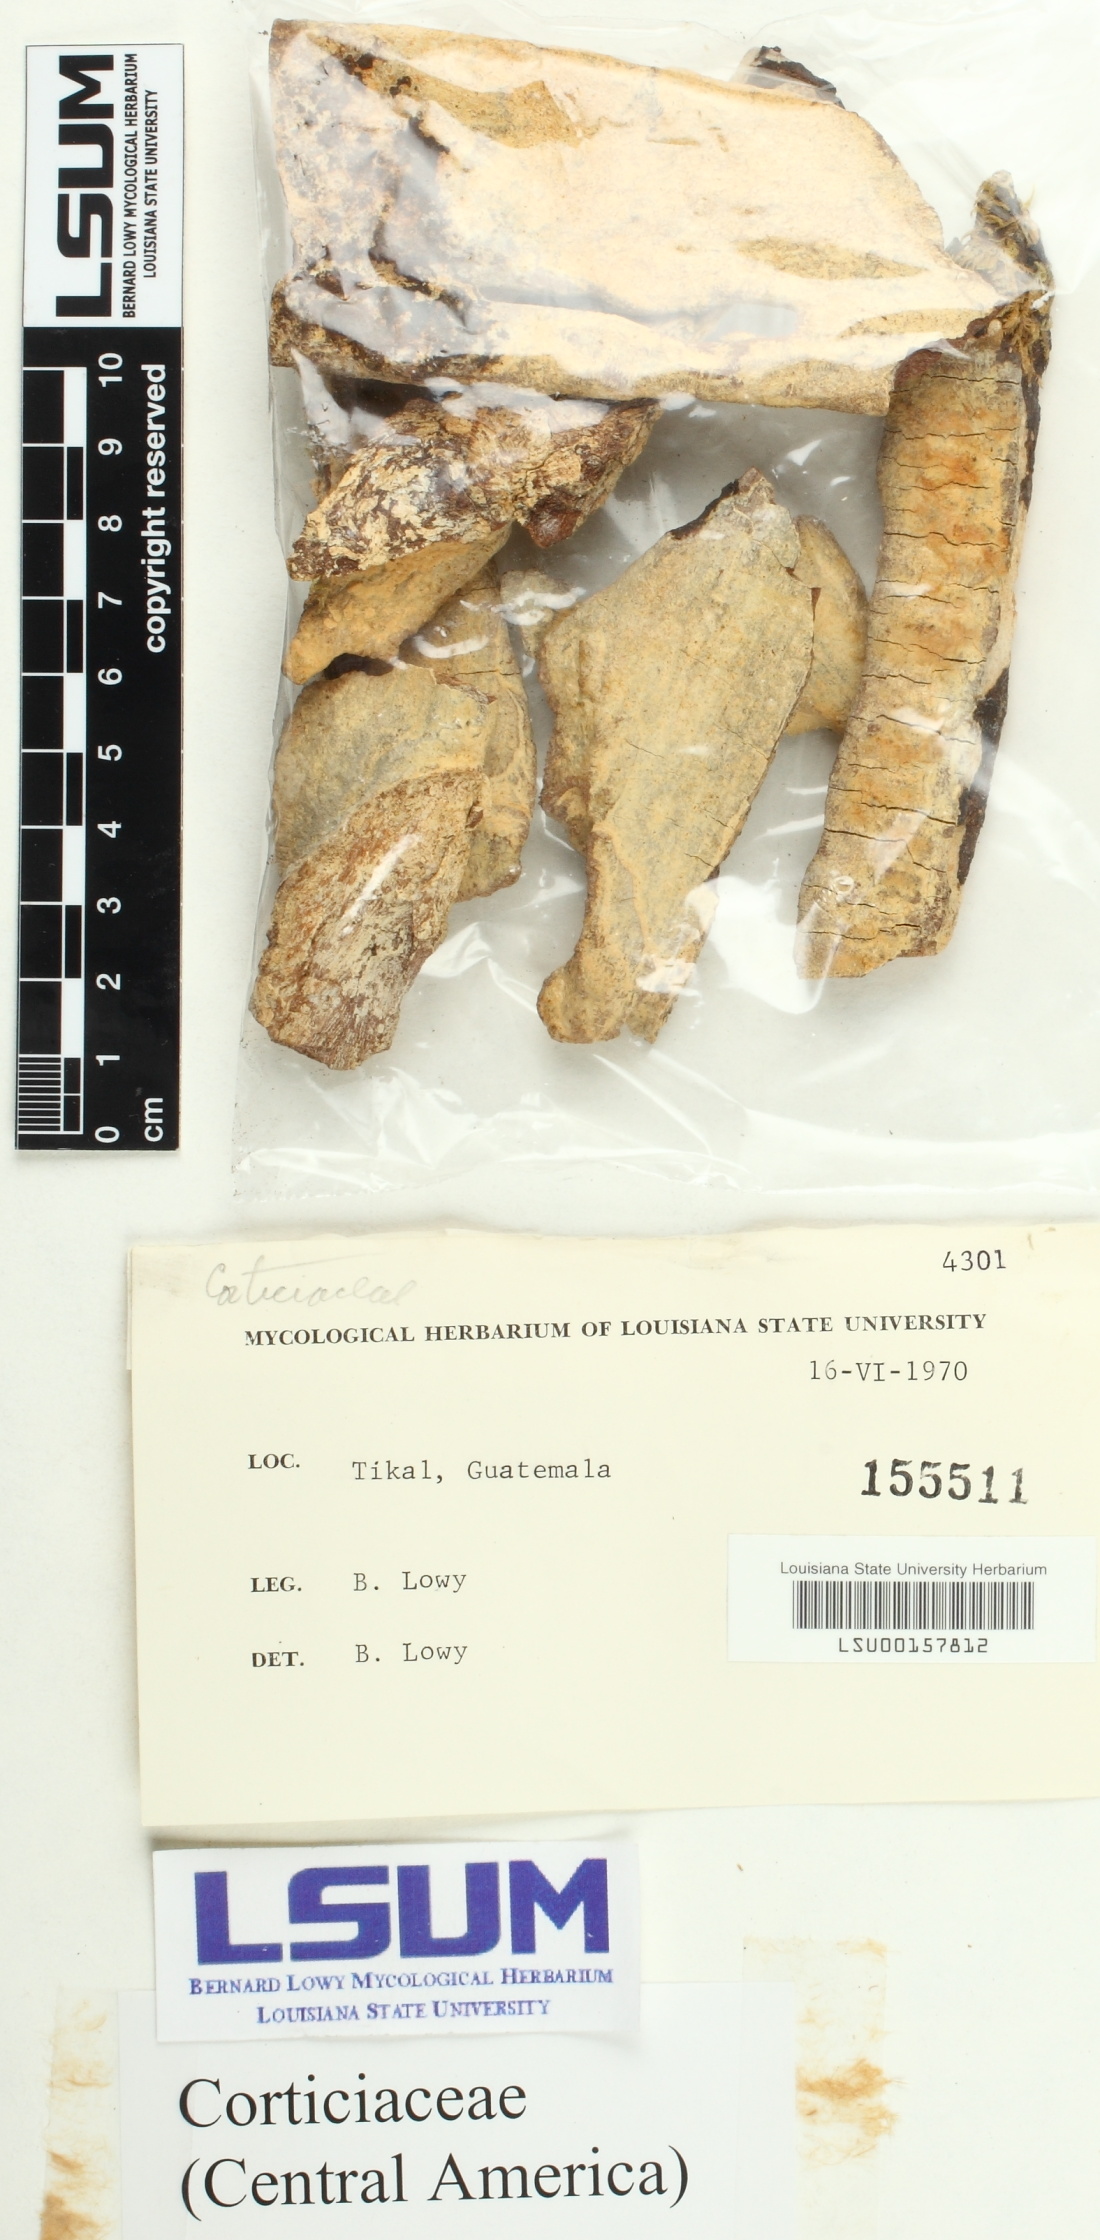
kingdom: Fungi
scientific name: Fungi
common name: Fungi
